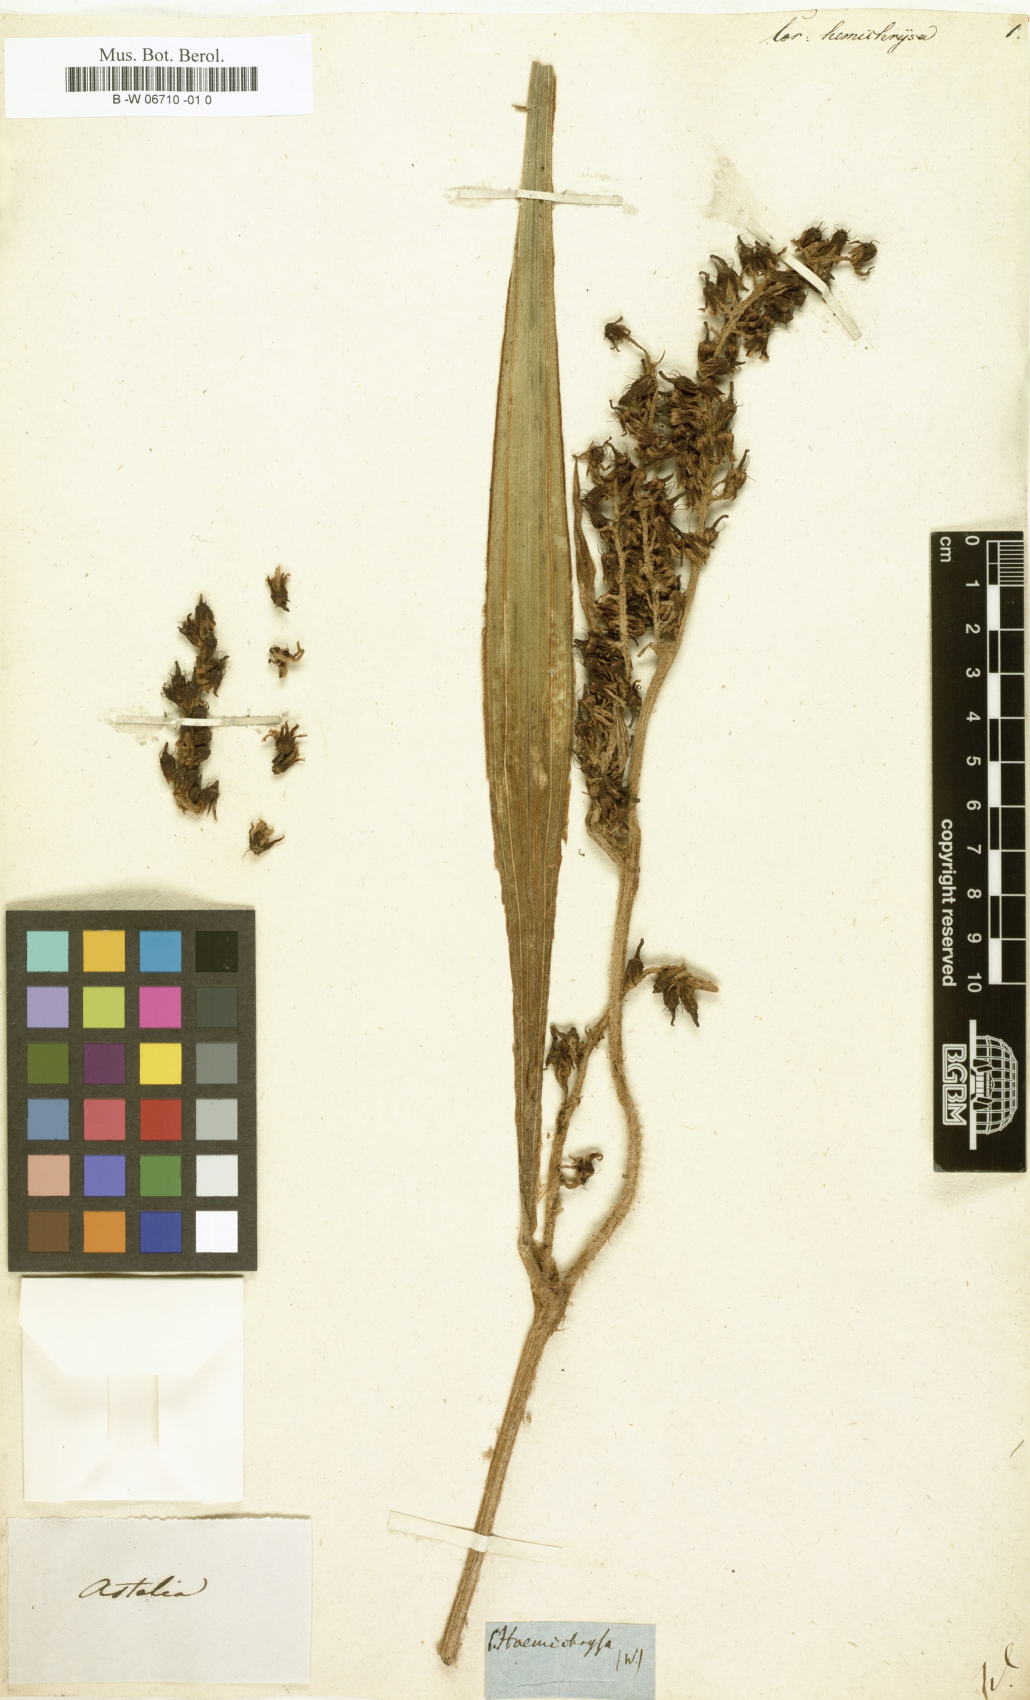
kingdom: Plantae
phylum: Tracheophyta
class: Liliopsida
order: Asparagales
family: Asparagaceae
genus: Cordyline
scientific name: Cordyline hemichrysa
